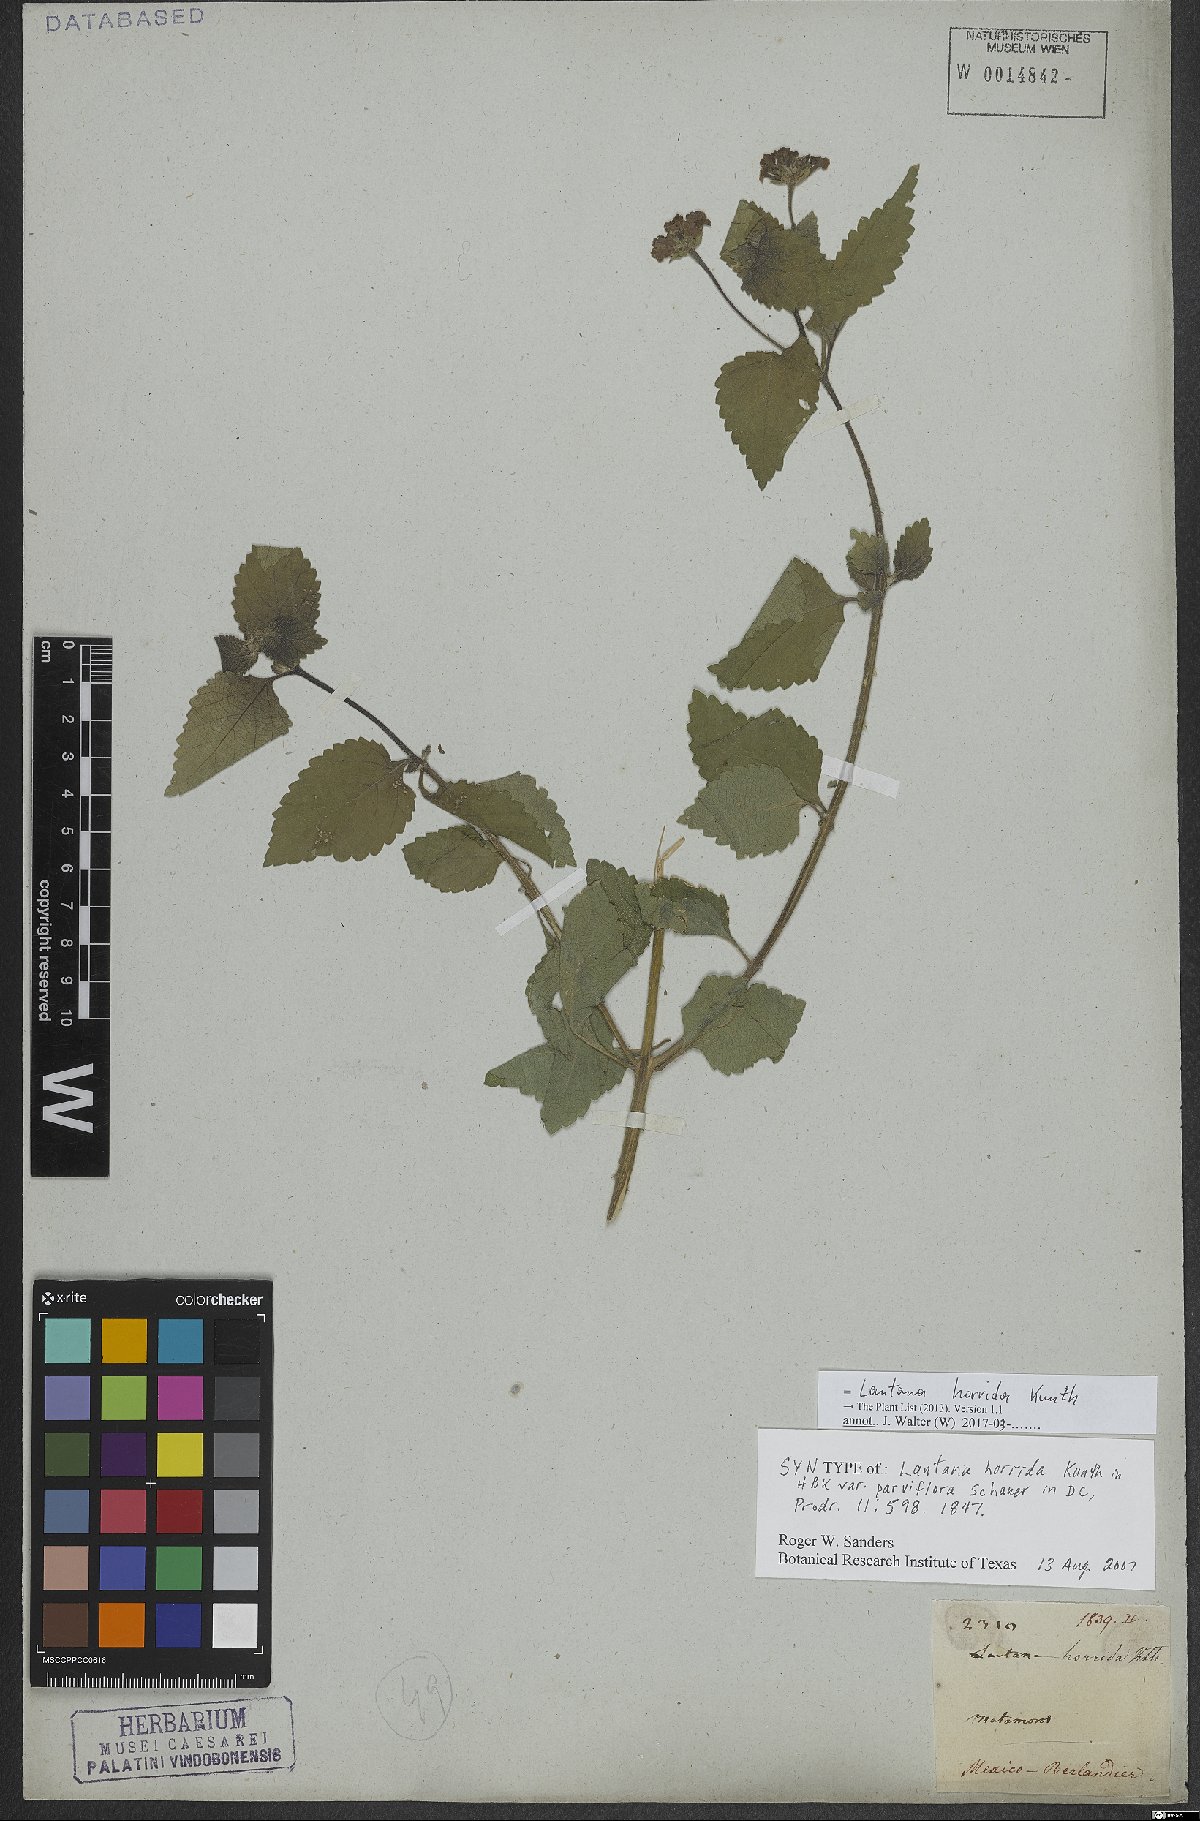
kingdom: Plantae
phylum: Tracheophyta
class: Magnoliopsida
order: Lamiales
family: Verbenaceae
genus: Lantana
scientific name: Lantana horrida
